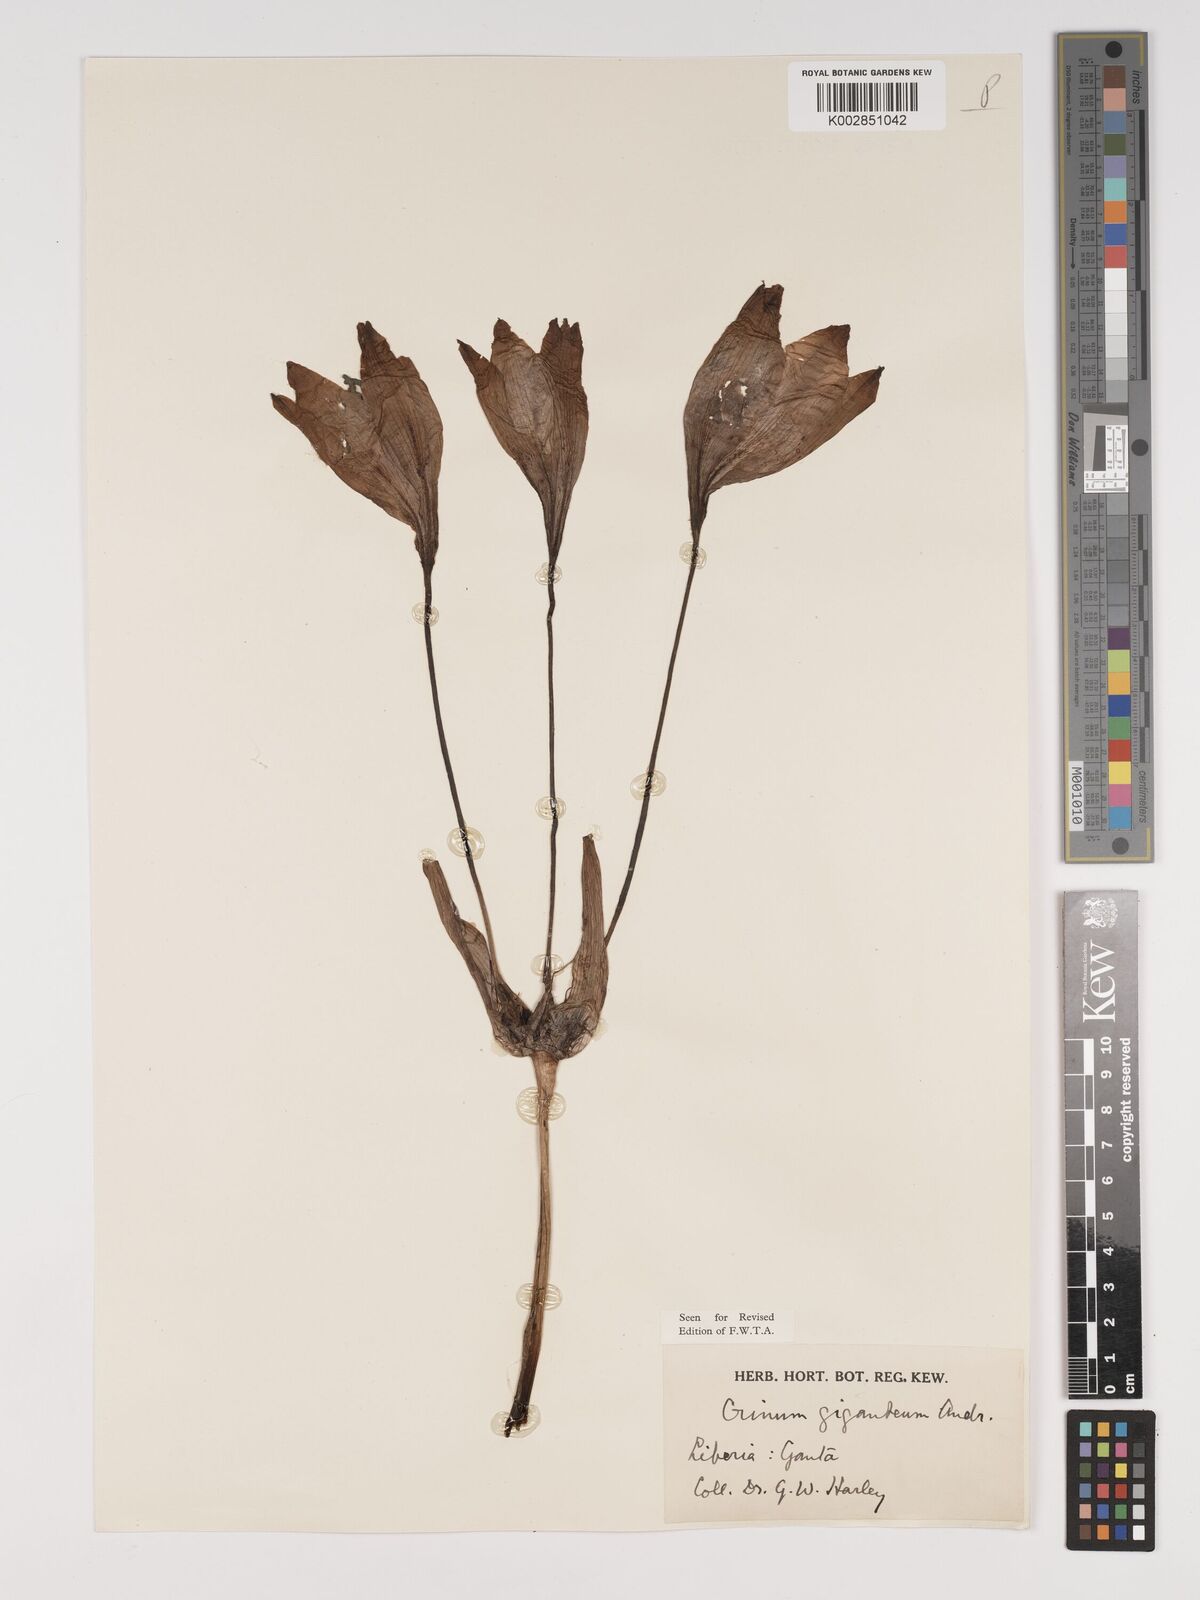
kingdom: Plantae
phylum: Tracheophyta
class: Liliopsida
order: Asparagales
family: Amaryllidaceae
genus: Crinum
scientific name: Crinum jagus
